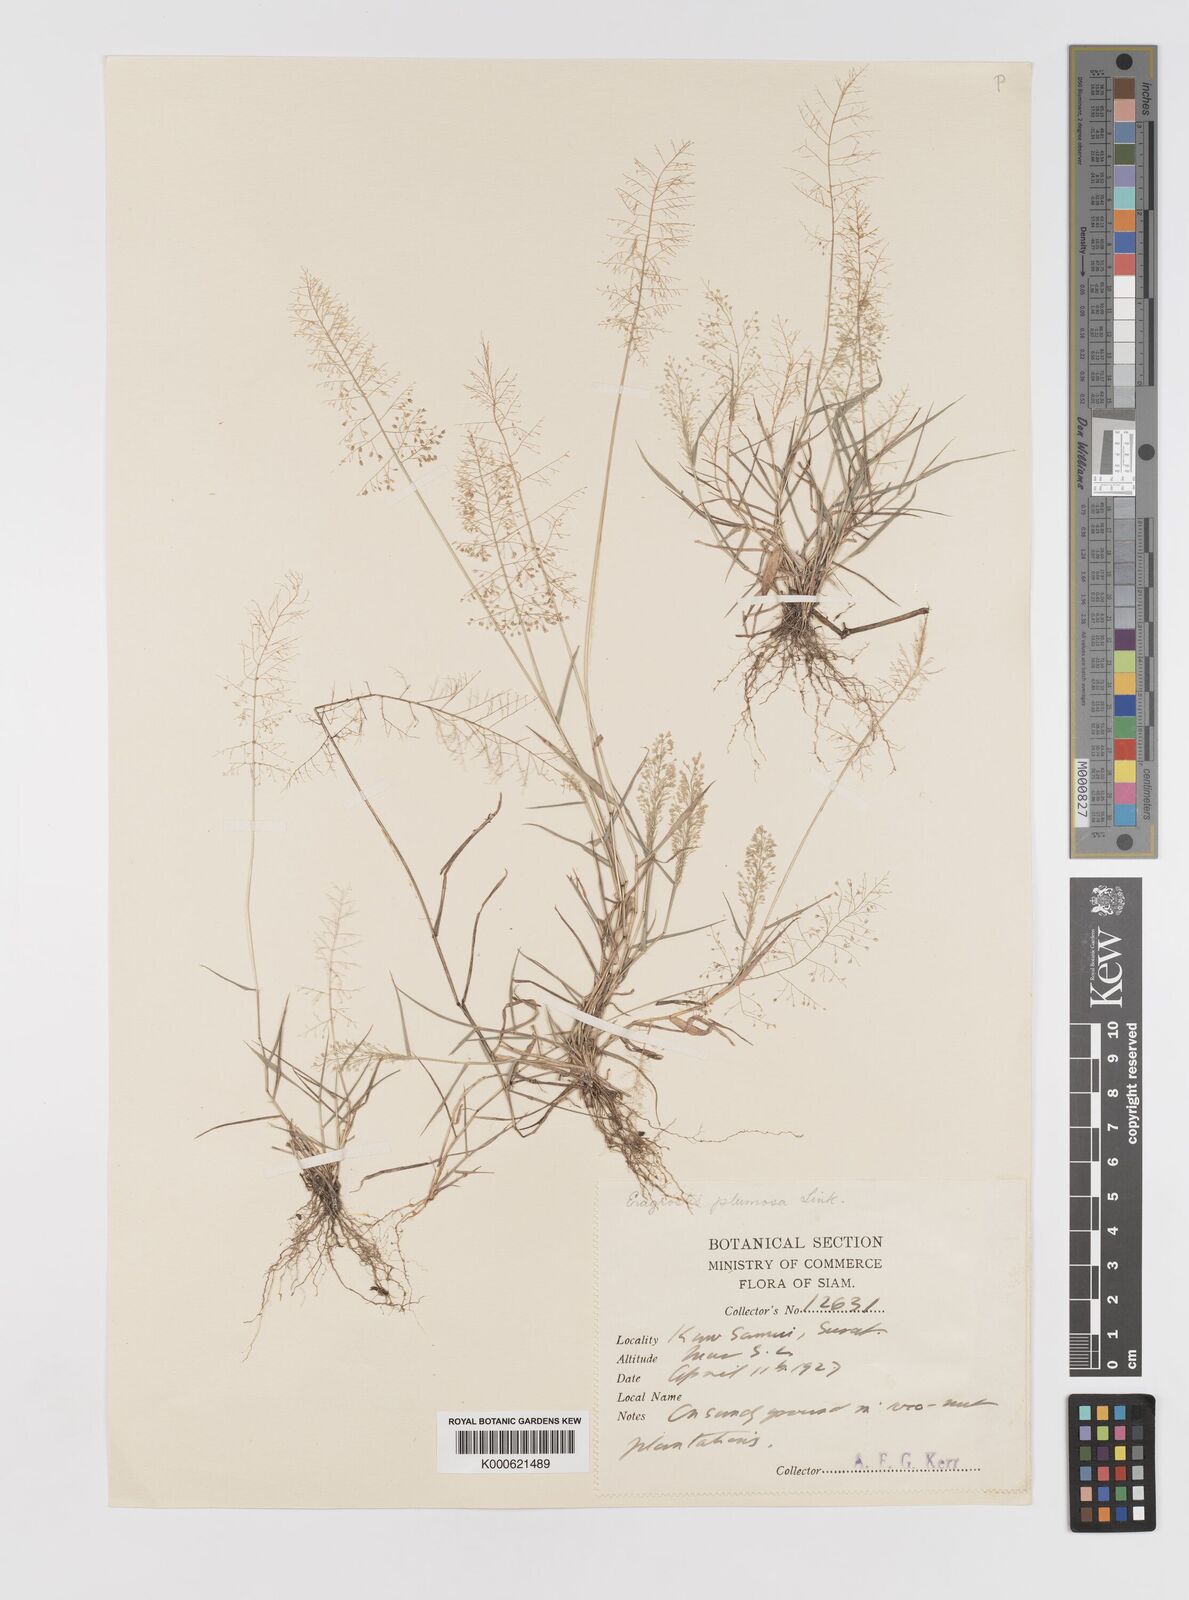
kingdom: Plantae
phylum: Tracheophyta
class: Liliopsida
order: Poales
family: Poaceae
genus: Eragrostis
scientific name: Eragrostis tenella
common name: Japanese lovegrass
